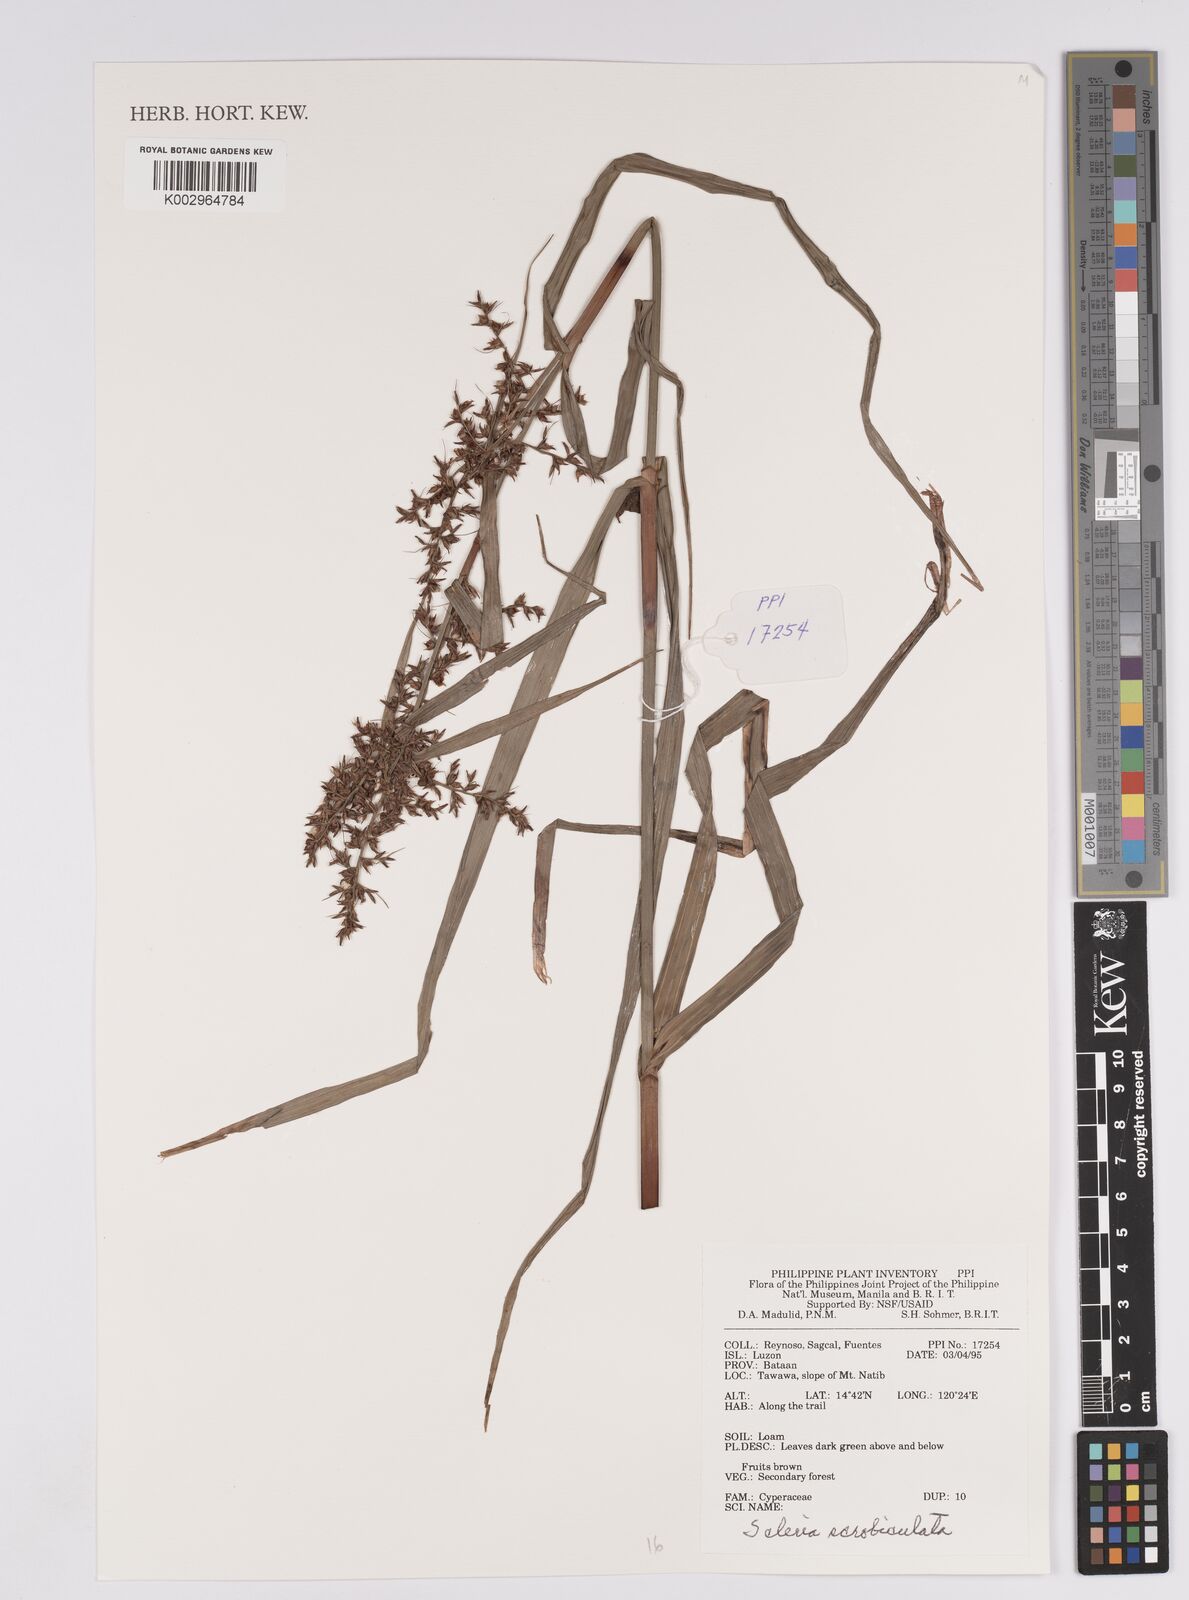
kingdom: Plantae
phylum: Tracheophyta
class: Liliopsida
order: Poales
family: Cyperaceae
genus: Scleria
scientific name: Scleria scrobiculata
